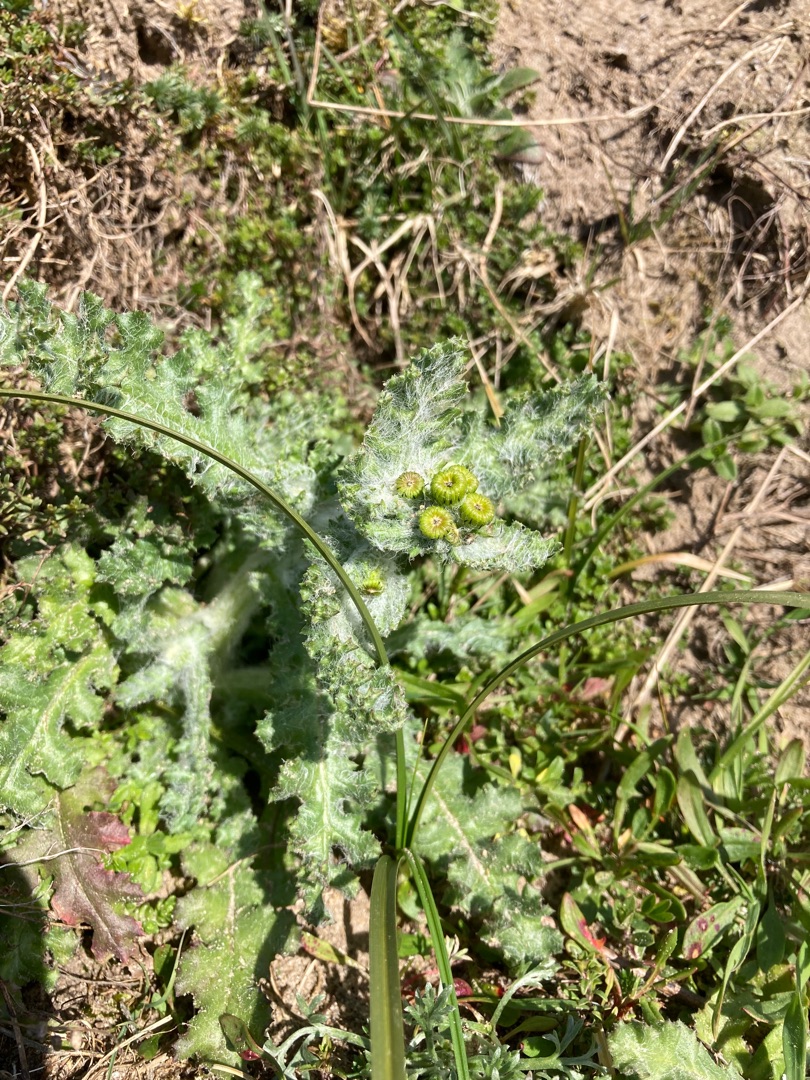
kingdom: Plantae
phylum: Tracheophyta
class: Magnoliopsida
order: Asterales
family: Asteraceae
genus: Senecio
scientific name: Senecio leucanthemifolius
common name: Vår-brandbæger
